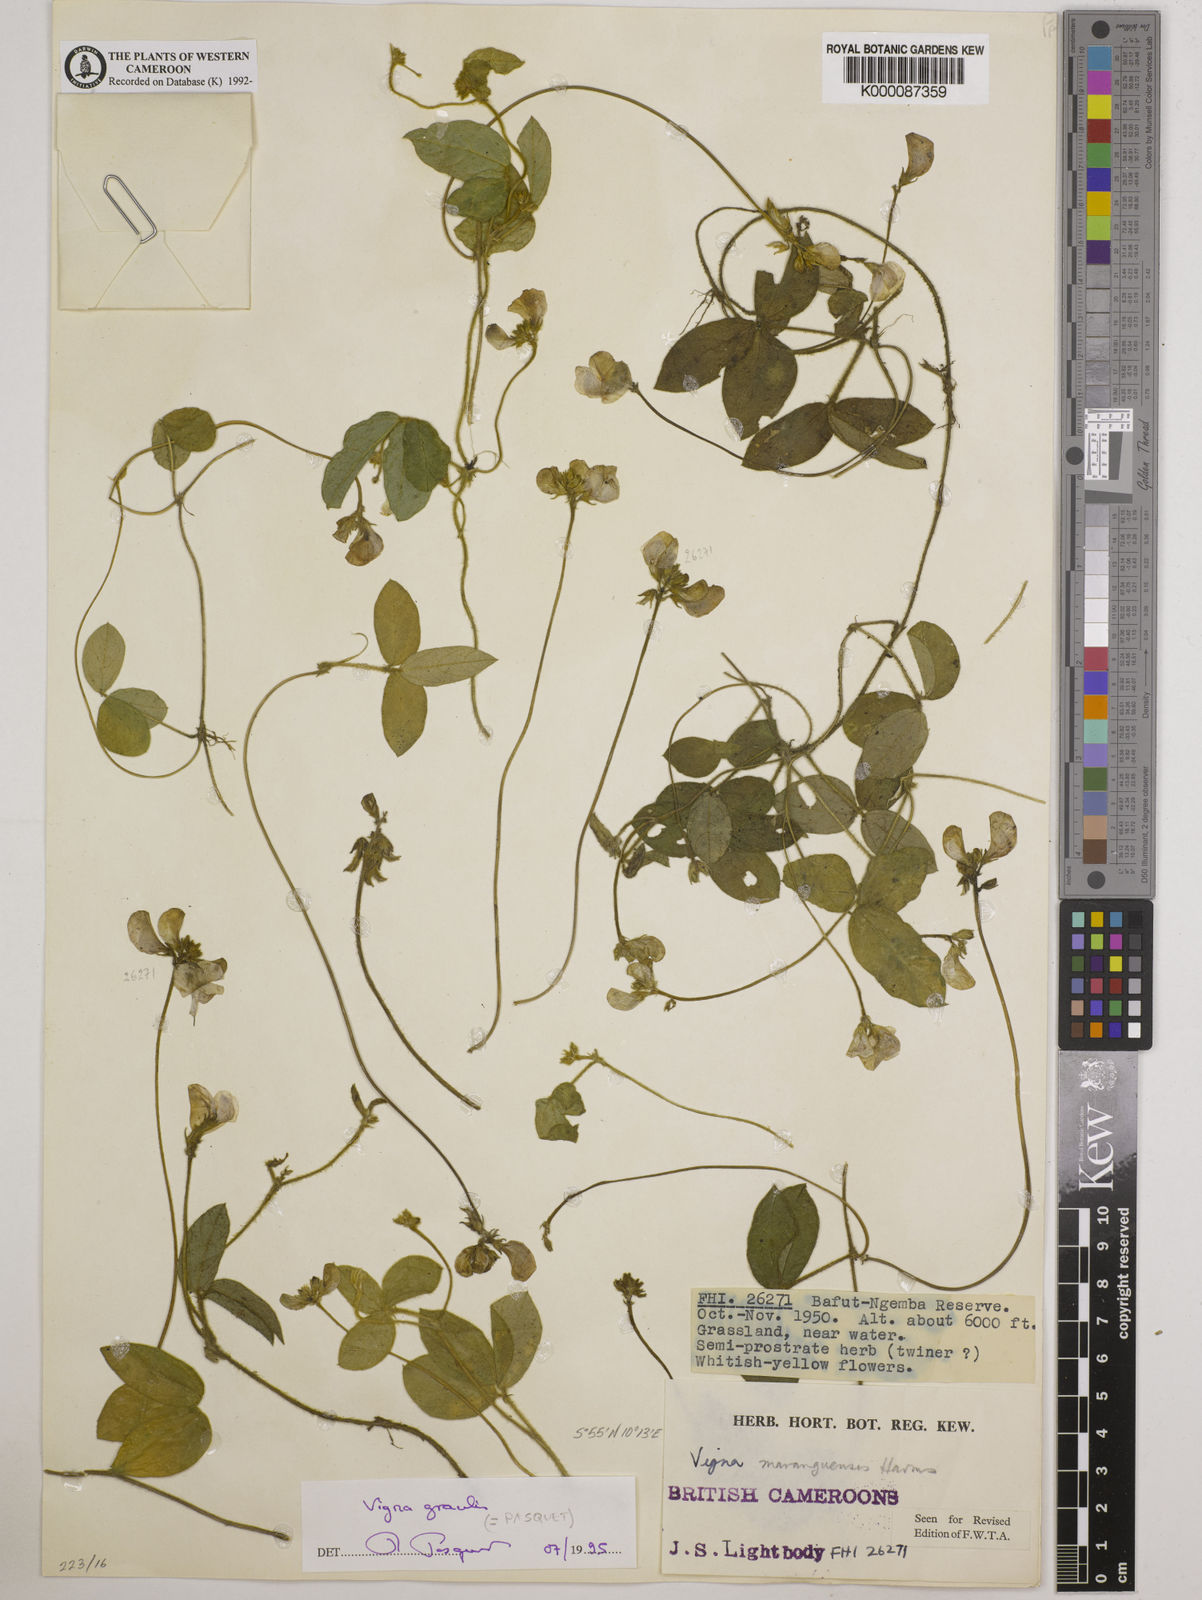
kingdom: Plantae
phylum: Tracheophyta
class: Magnoliopsida
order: Fabales
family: Fabaceae
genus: Vigna
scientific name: Vigna gracilis
